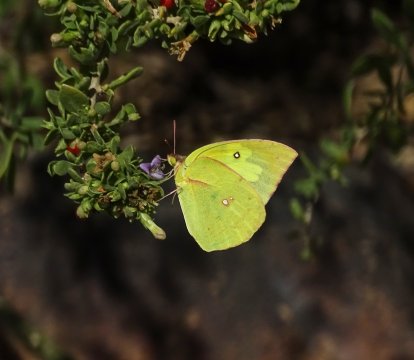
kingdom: Animalia
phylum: Arthropoda
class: Insecta
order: Lepidoptera
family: Pieridae
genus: Zerene
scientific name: Zerene cesonia
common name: Southern Dogface
